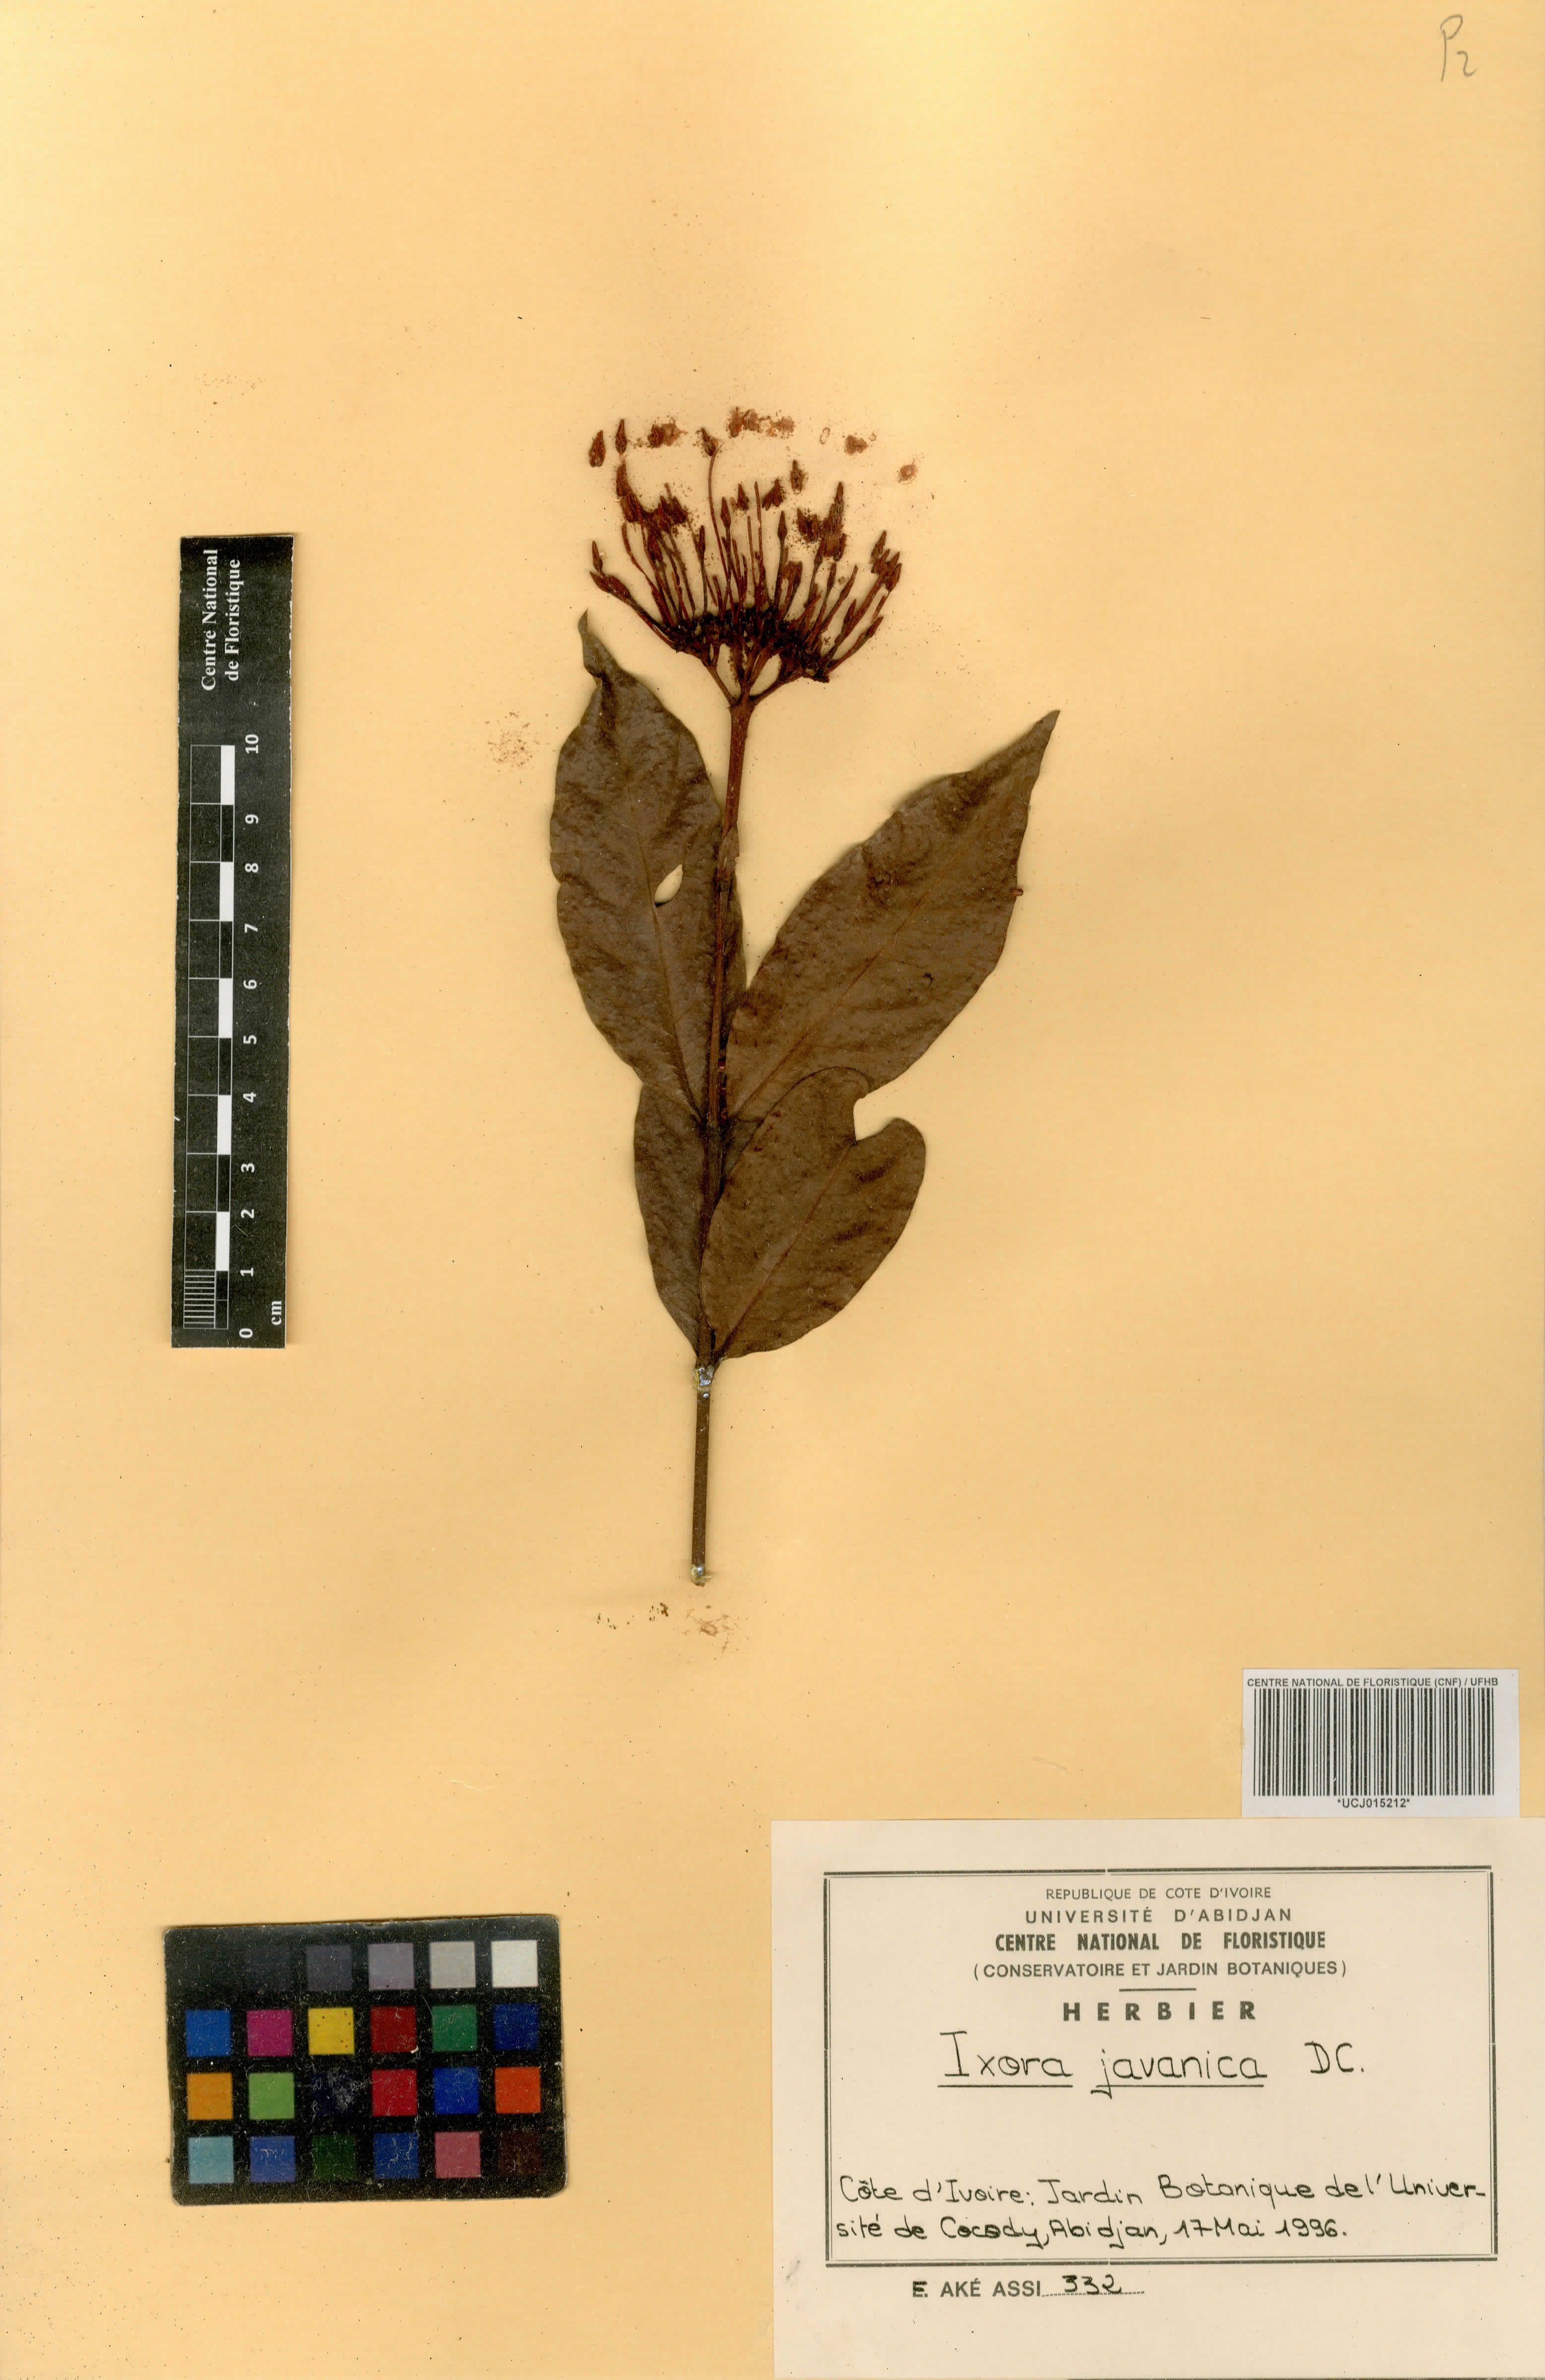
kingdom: Plantae
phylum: Tracheophyta
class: Magnoliopsida
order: Gentianales
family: Rubiaceae
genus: Ixora
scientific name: Ixora javanica
